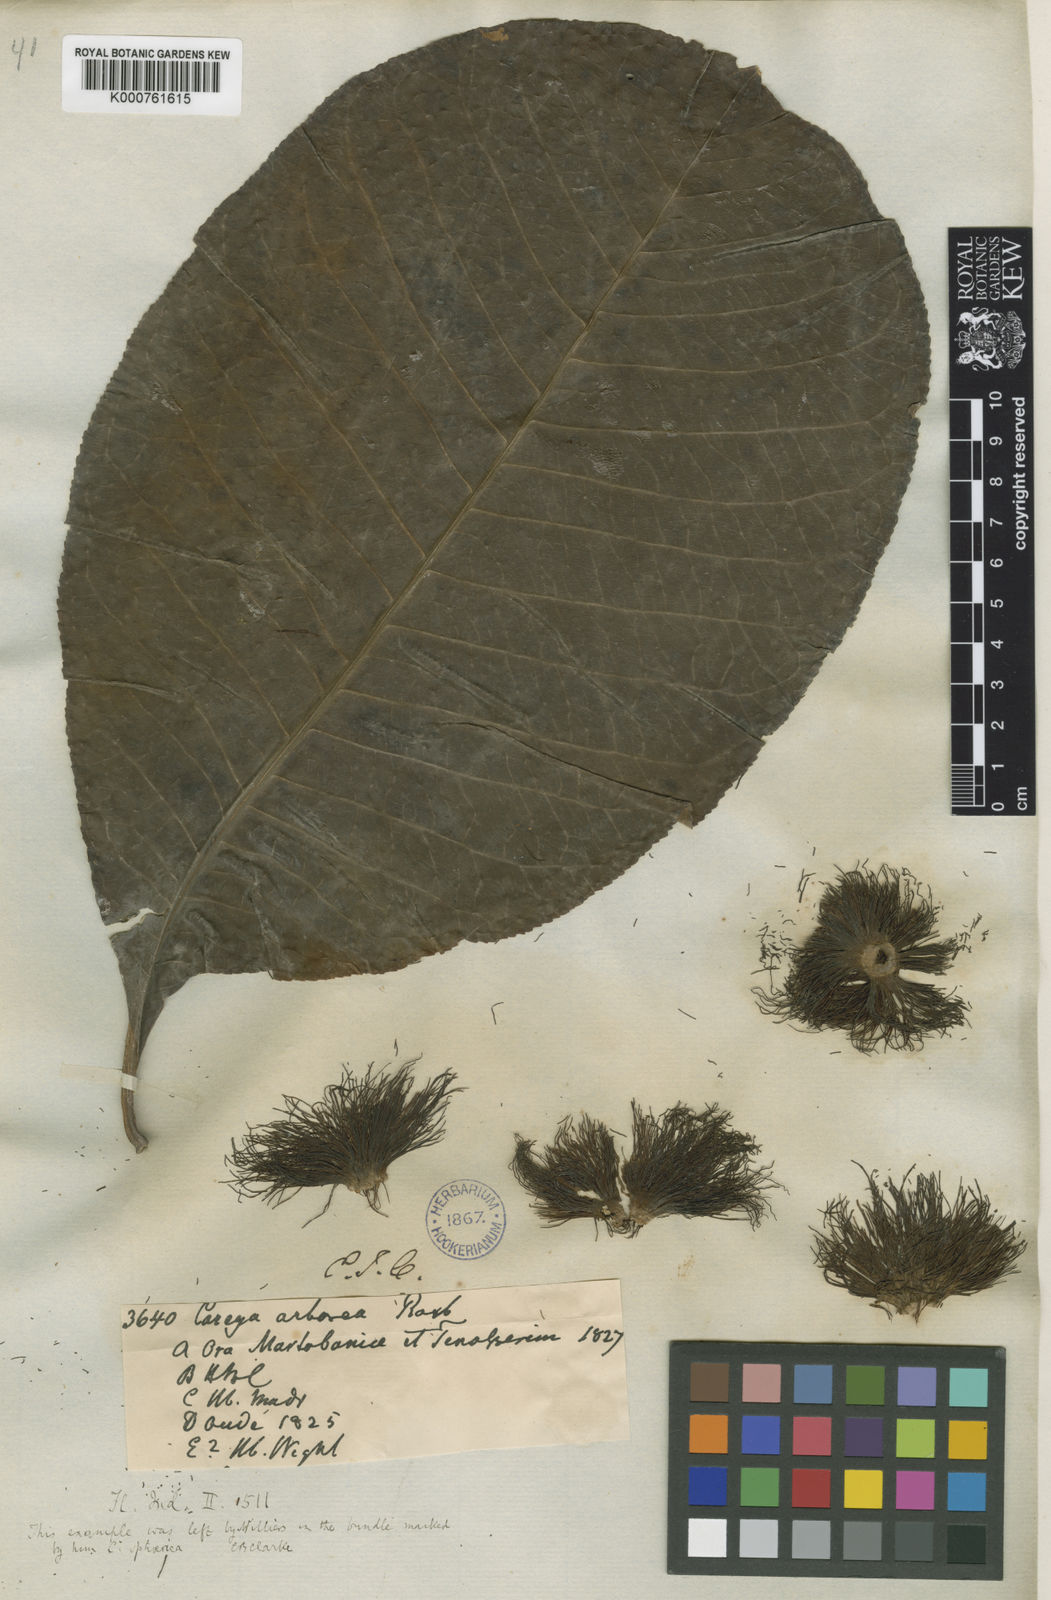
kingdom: Plantae
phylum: Tracheophyta
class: Magnoliopsida
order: Ericales
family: Lecythidaceae
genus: Careya
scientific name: Careya arborea
